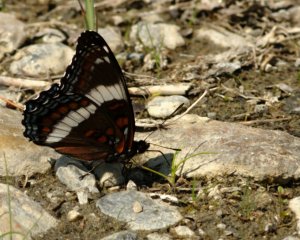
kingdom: Animalia
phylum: Arthropoda
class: Insecta
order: Lepidoptera
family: Nymphalidae
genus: Limenitis
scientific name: Limenitis arthemis
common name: Red-spotted Admiral
